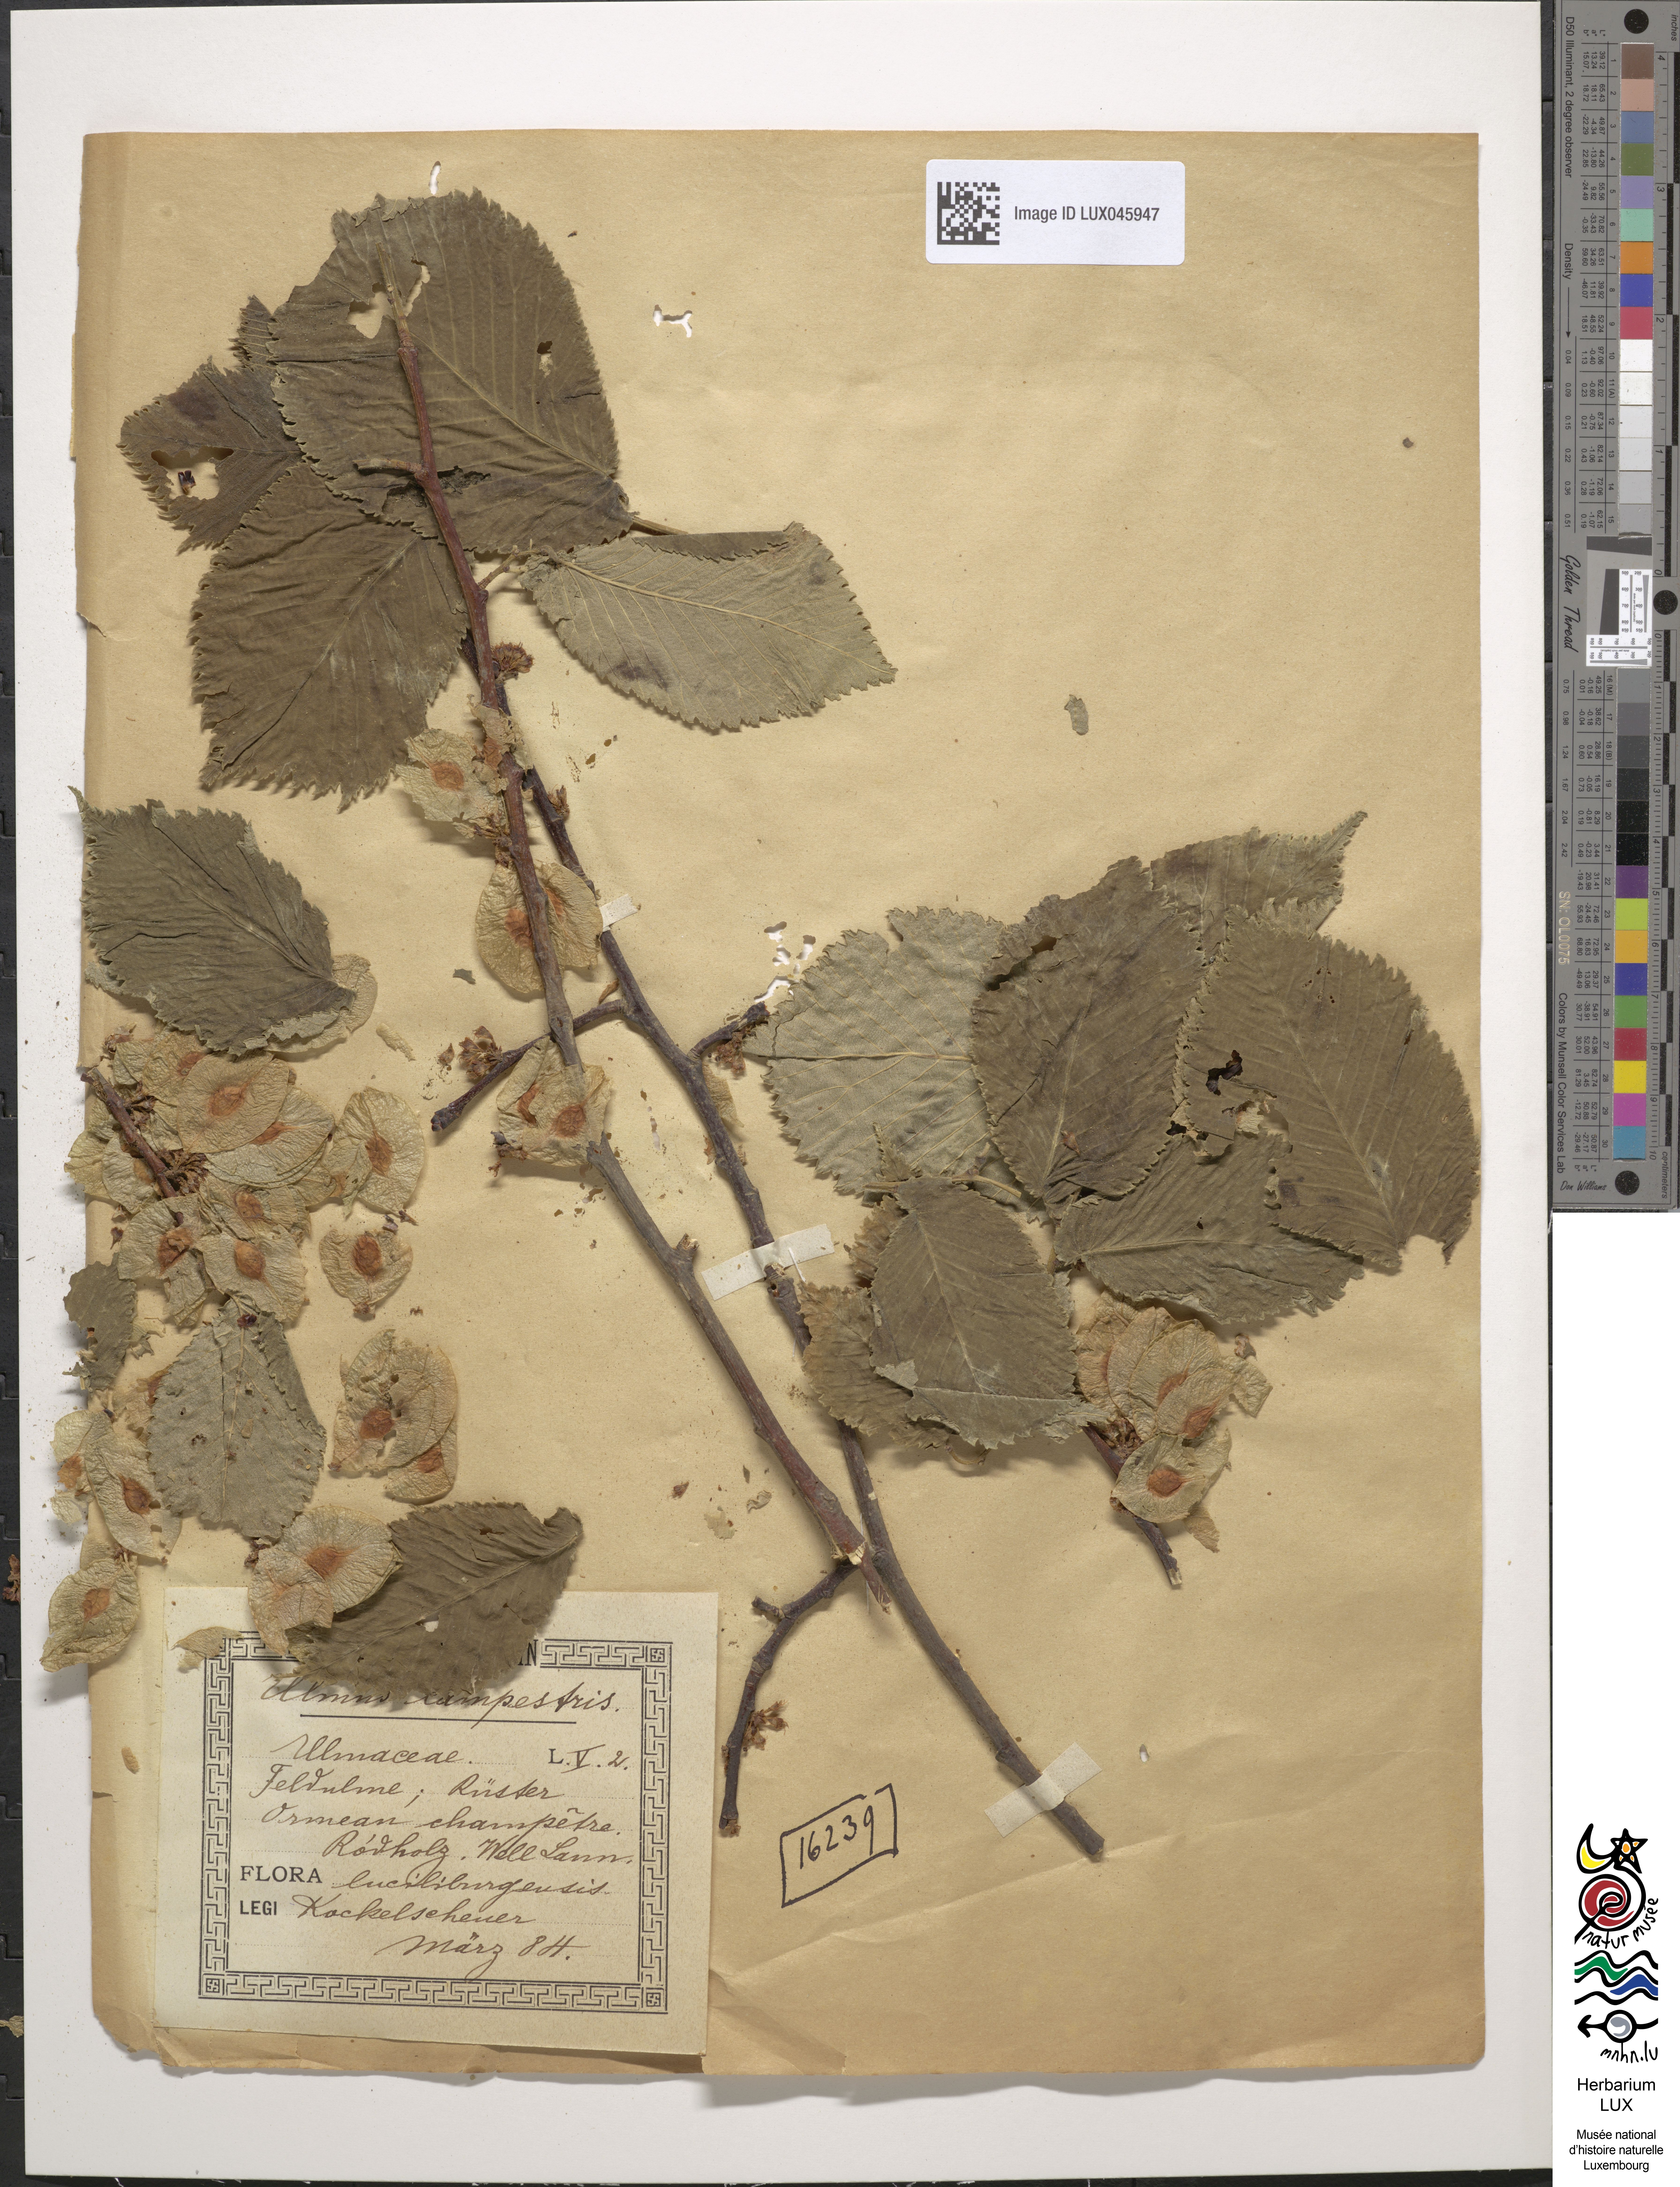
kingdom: Plantae
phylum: Tracheophyta
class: Magnoliopsida
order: Rosales
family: Ulmaceae
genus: Ulmus
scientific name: Ulmus minor
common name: Small-leaved elm
